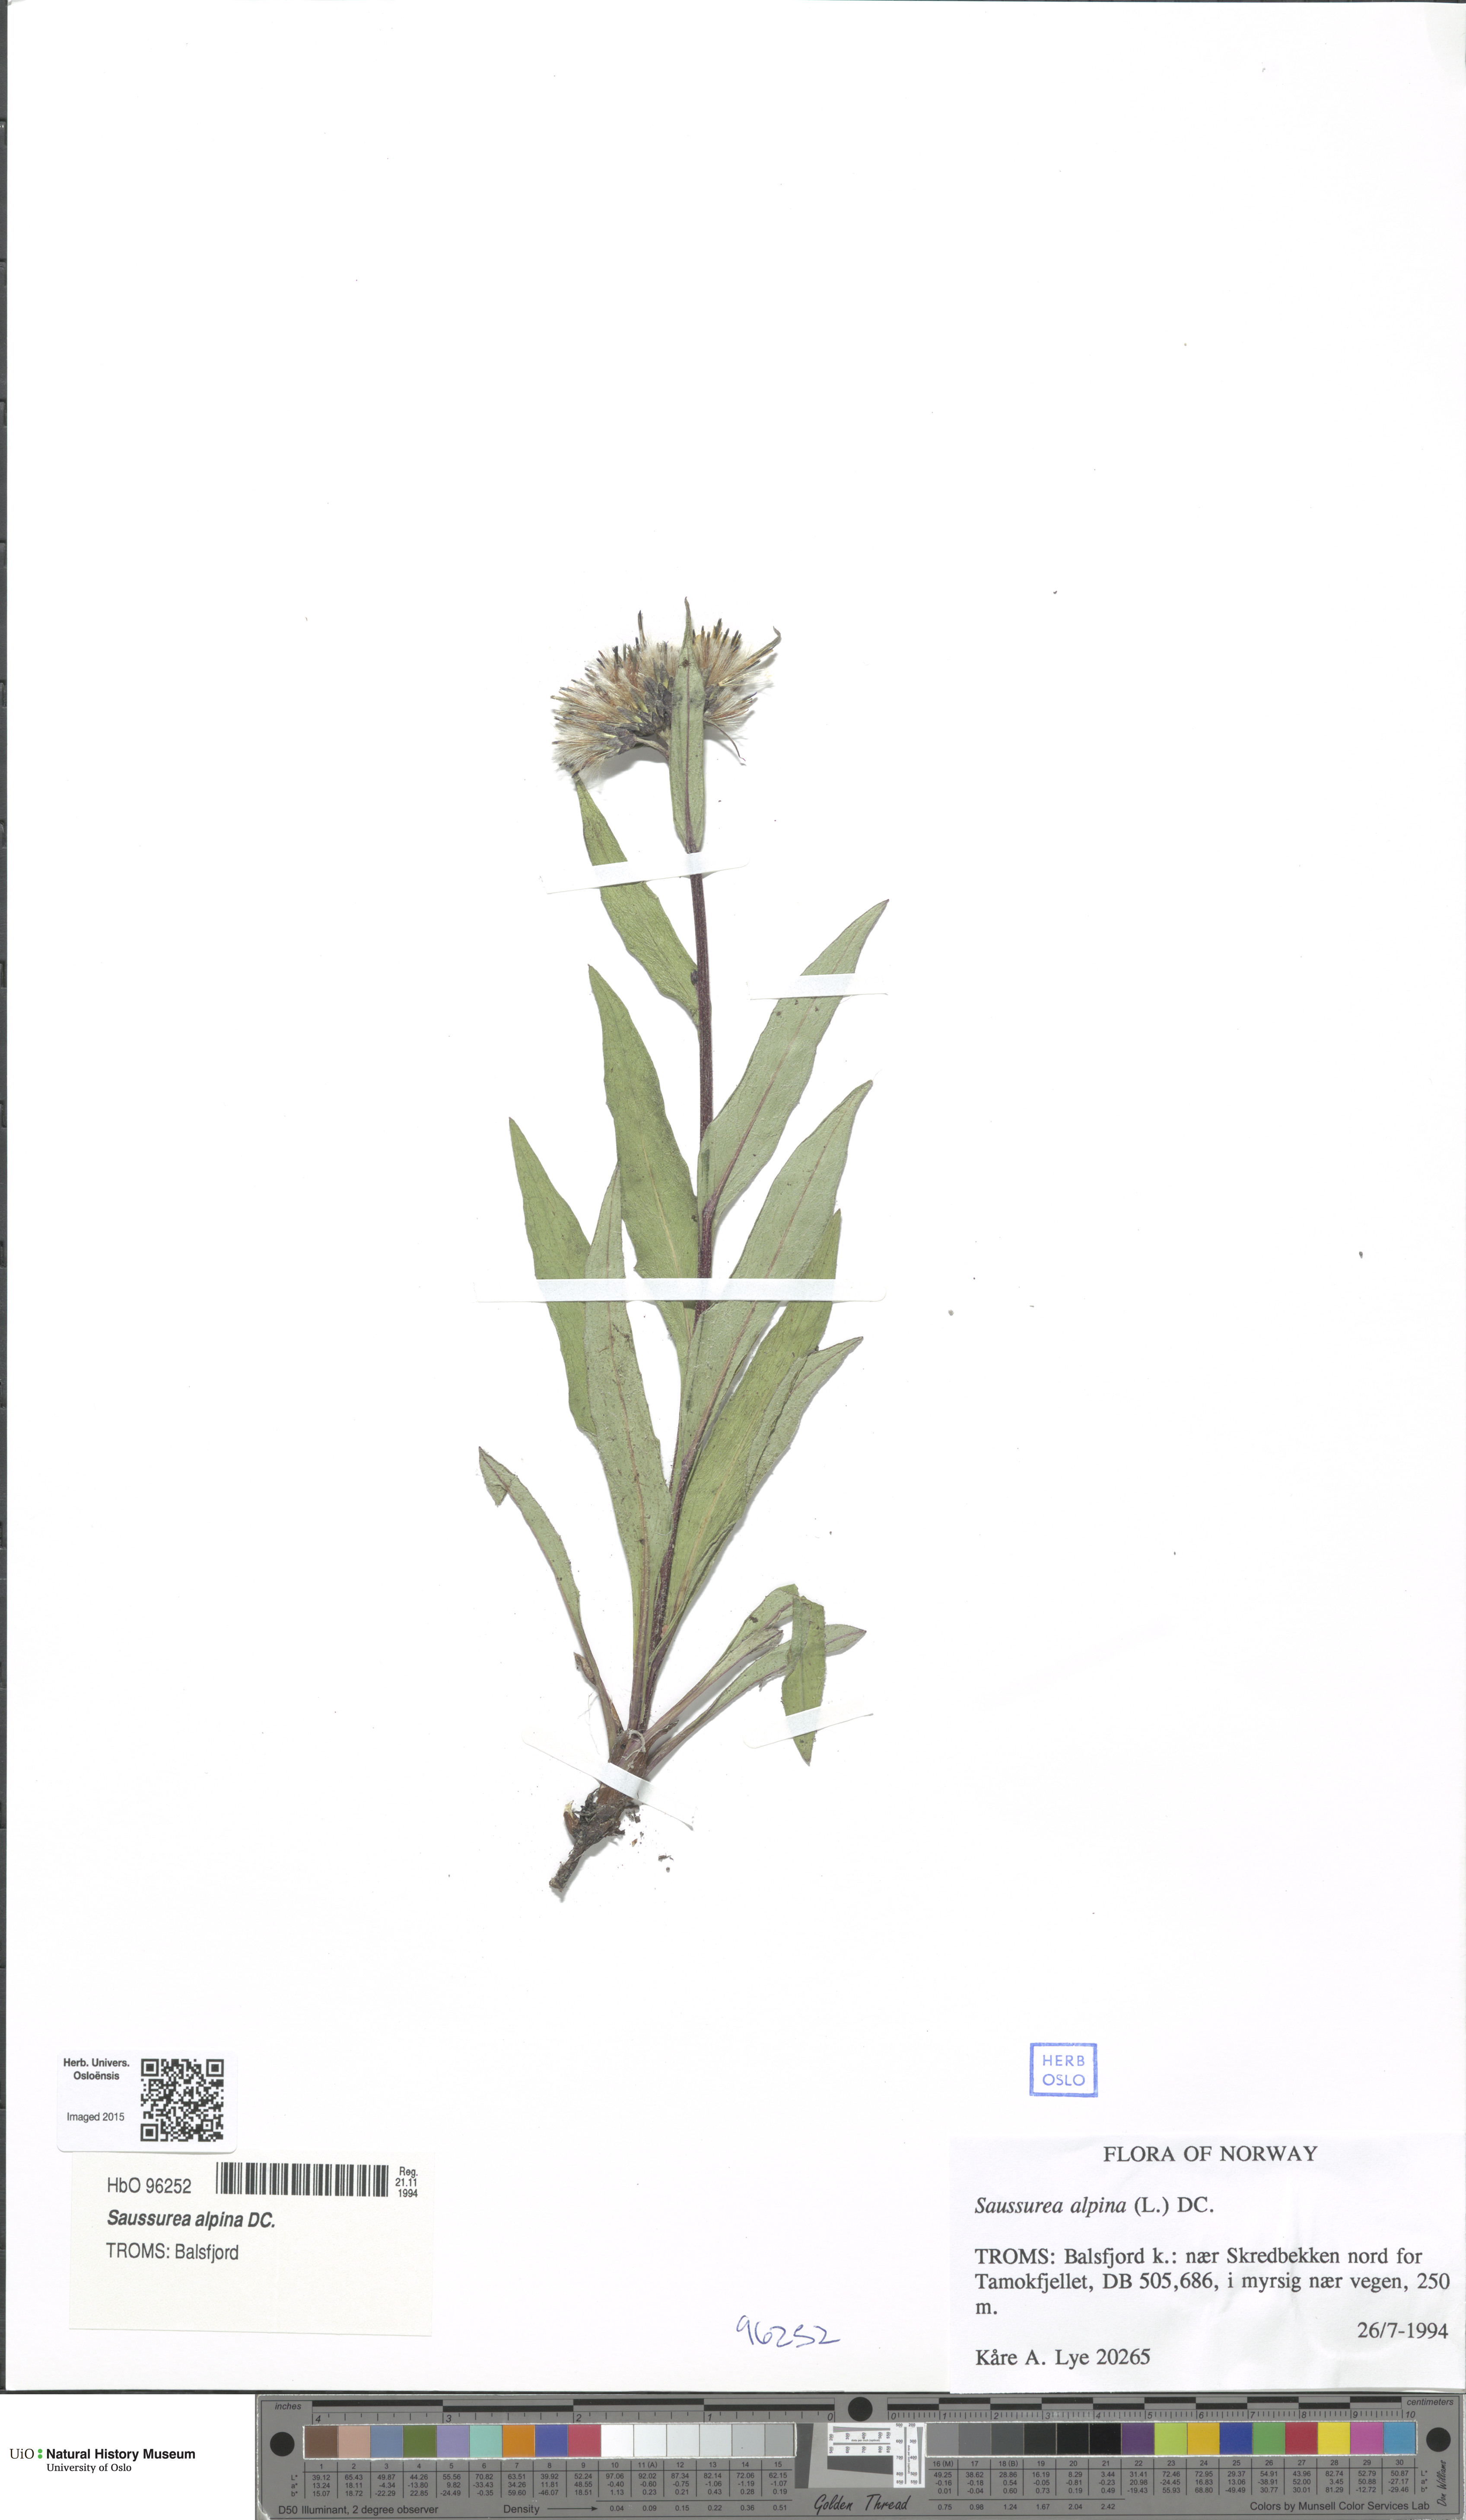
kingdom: Plantae
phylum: Tracheophyta
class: Magnoliopsida
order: Asterales
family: Asteraceae
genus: Saussurea
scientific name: Saussurea alpina
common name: Alpine saw-wort
